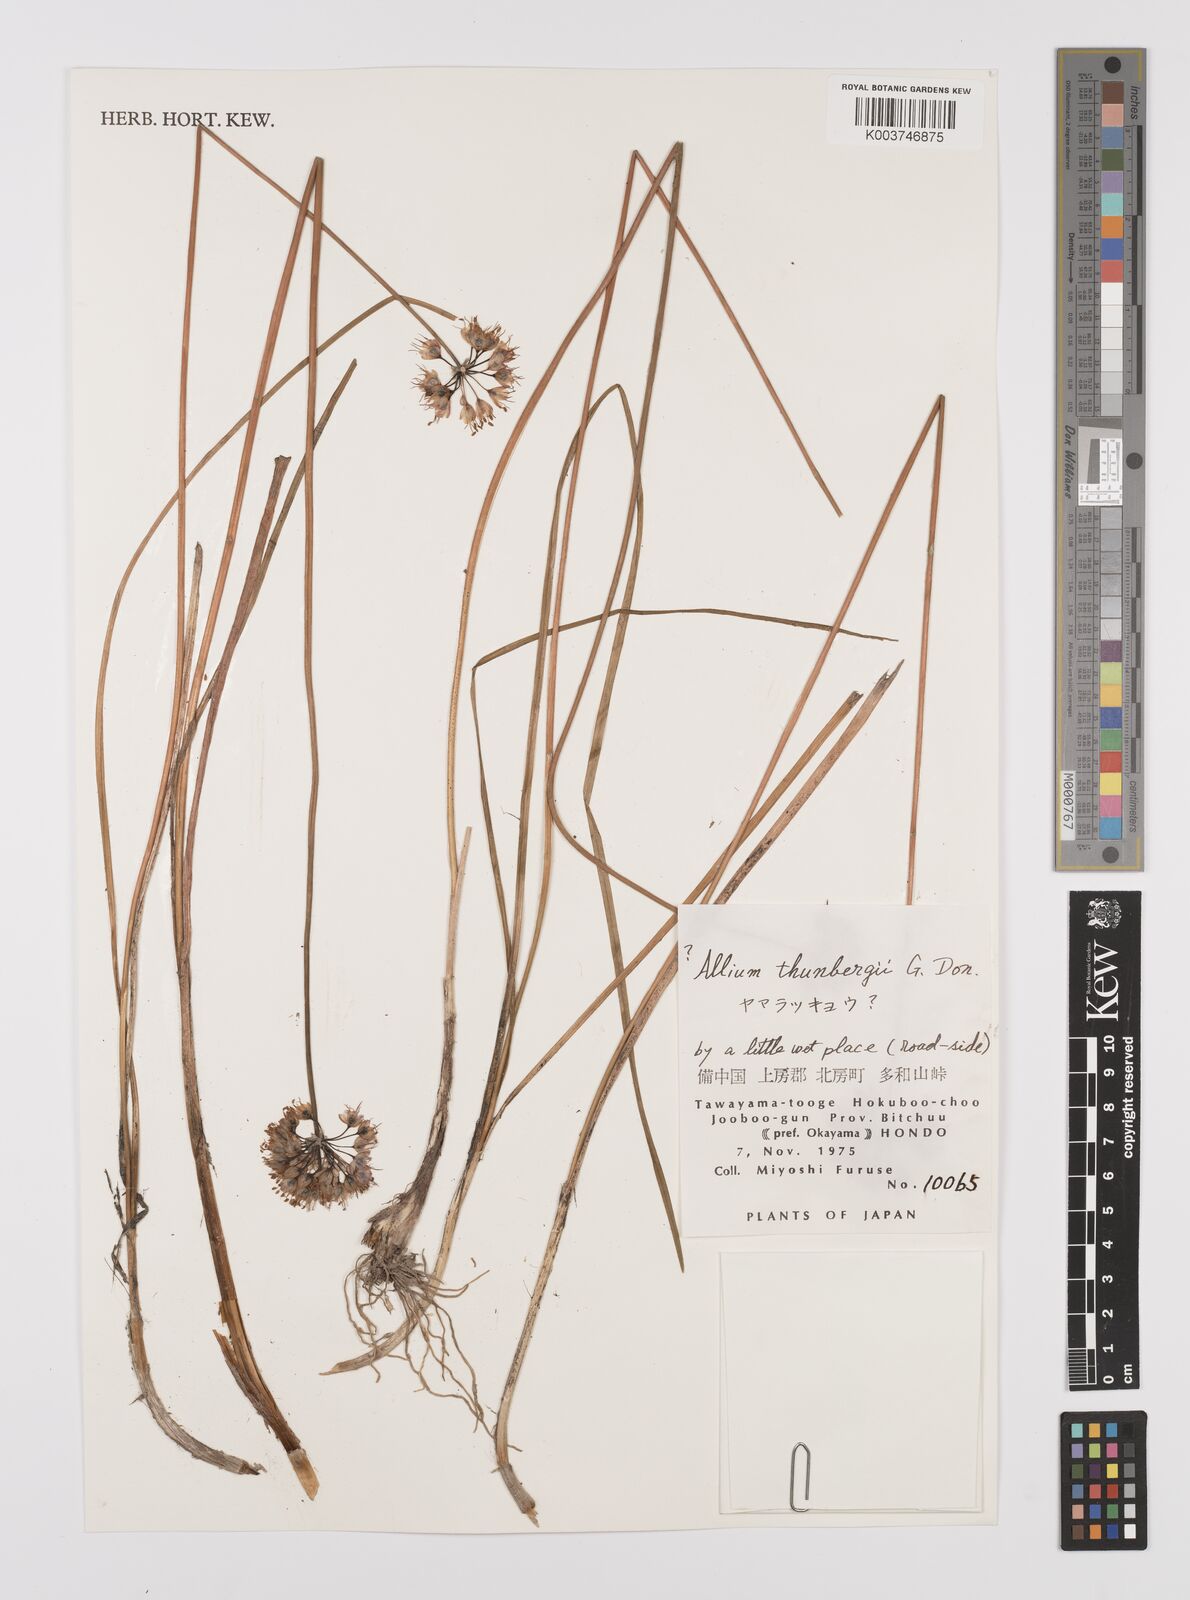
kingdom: Plantae
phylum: Tracheophyta
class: Liliopsida
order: Asparagales
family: Amaryllidaceae
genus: Allium
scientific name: Allium thunbergii
